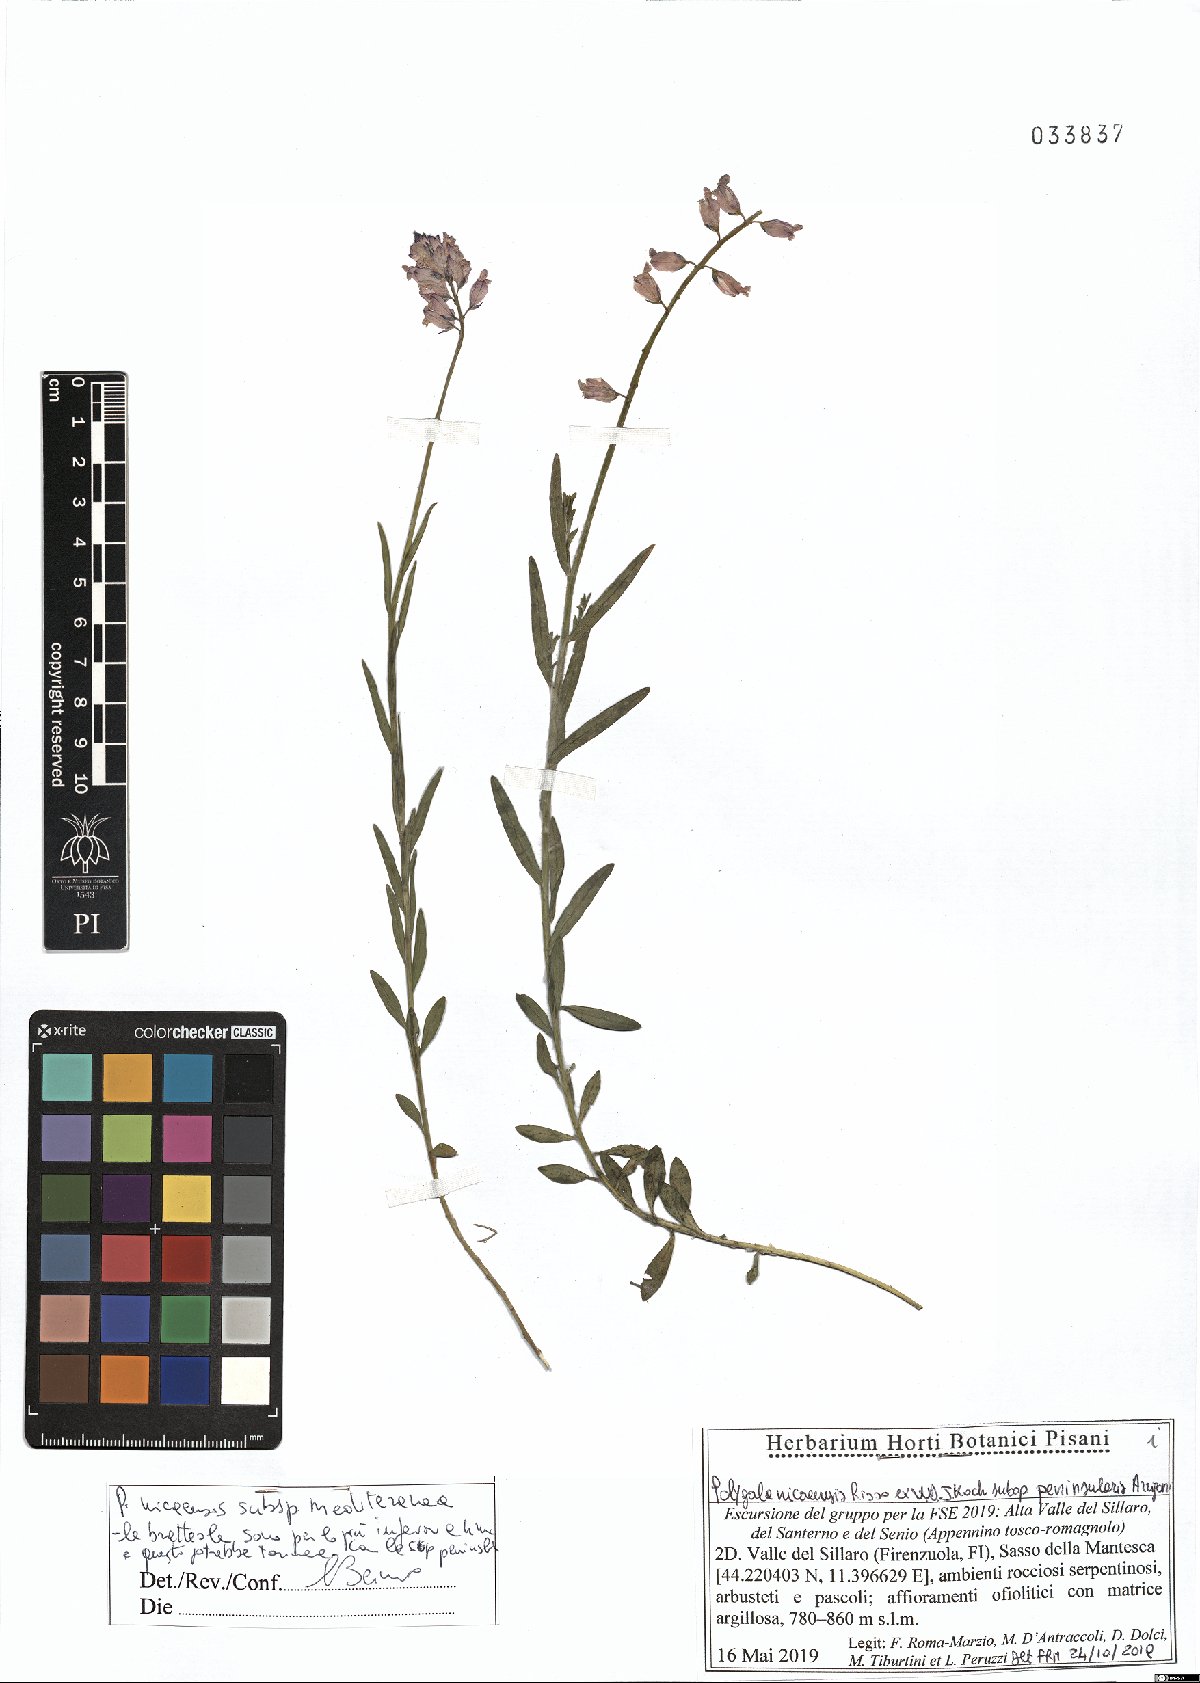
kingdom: Plantae
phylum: Tracheophyta
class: Magnoliopsida
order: Fabales
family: Polygalaceae
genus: Polygala
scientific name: Polygala nicaeensis
